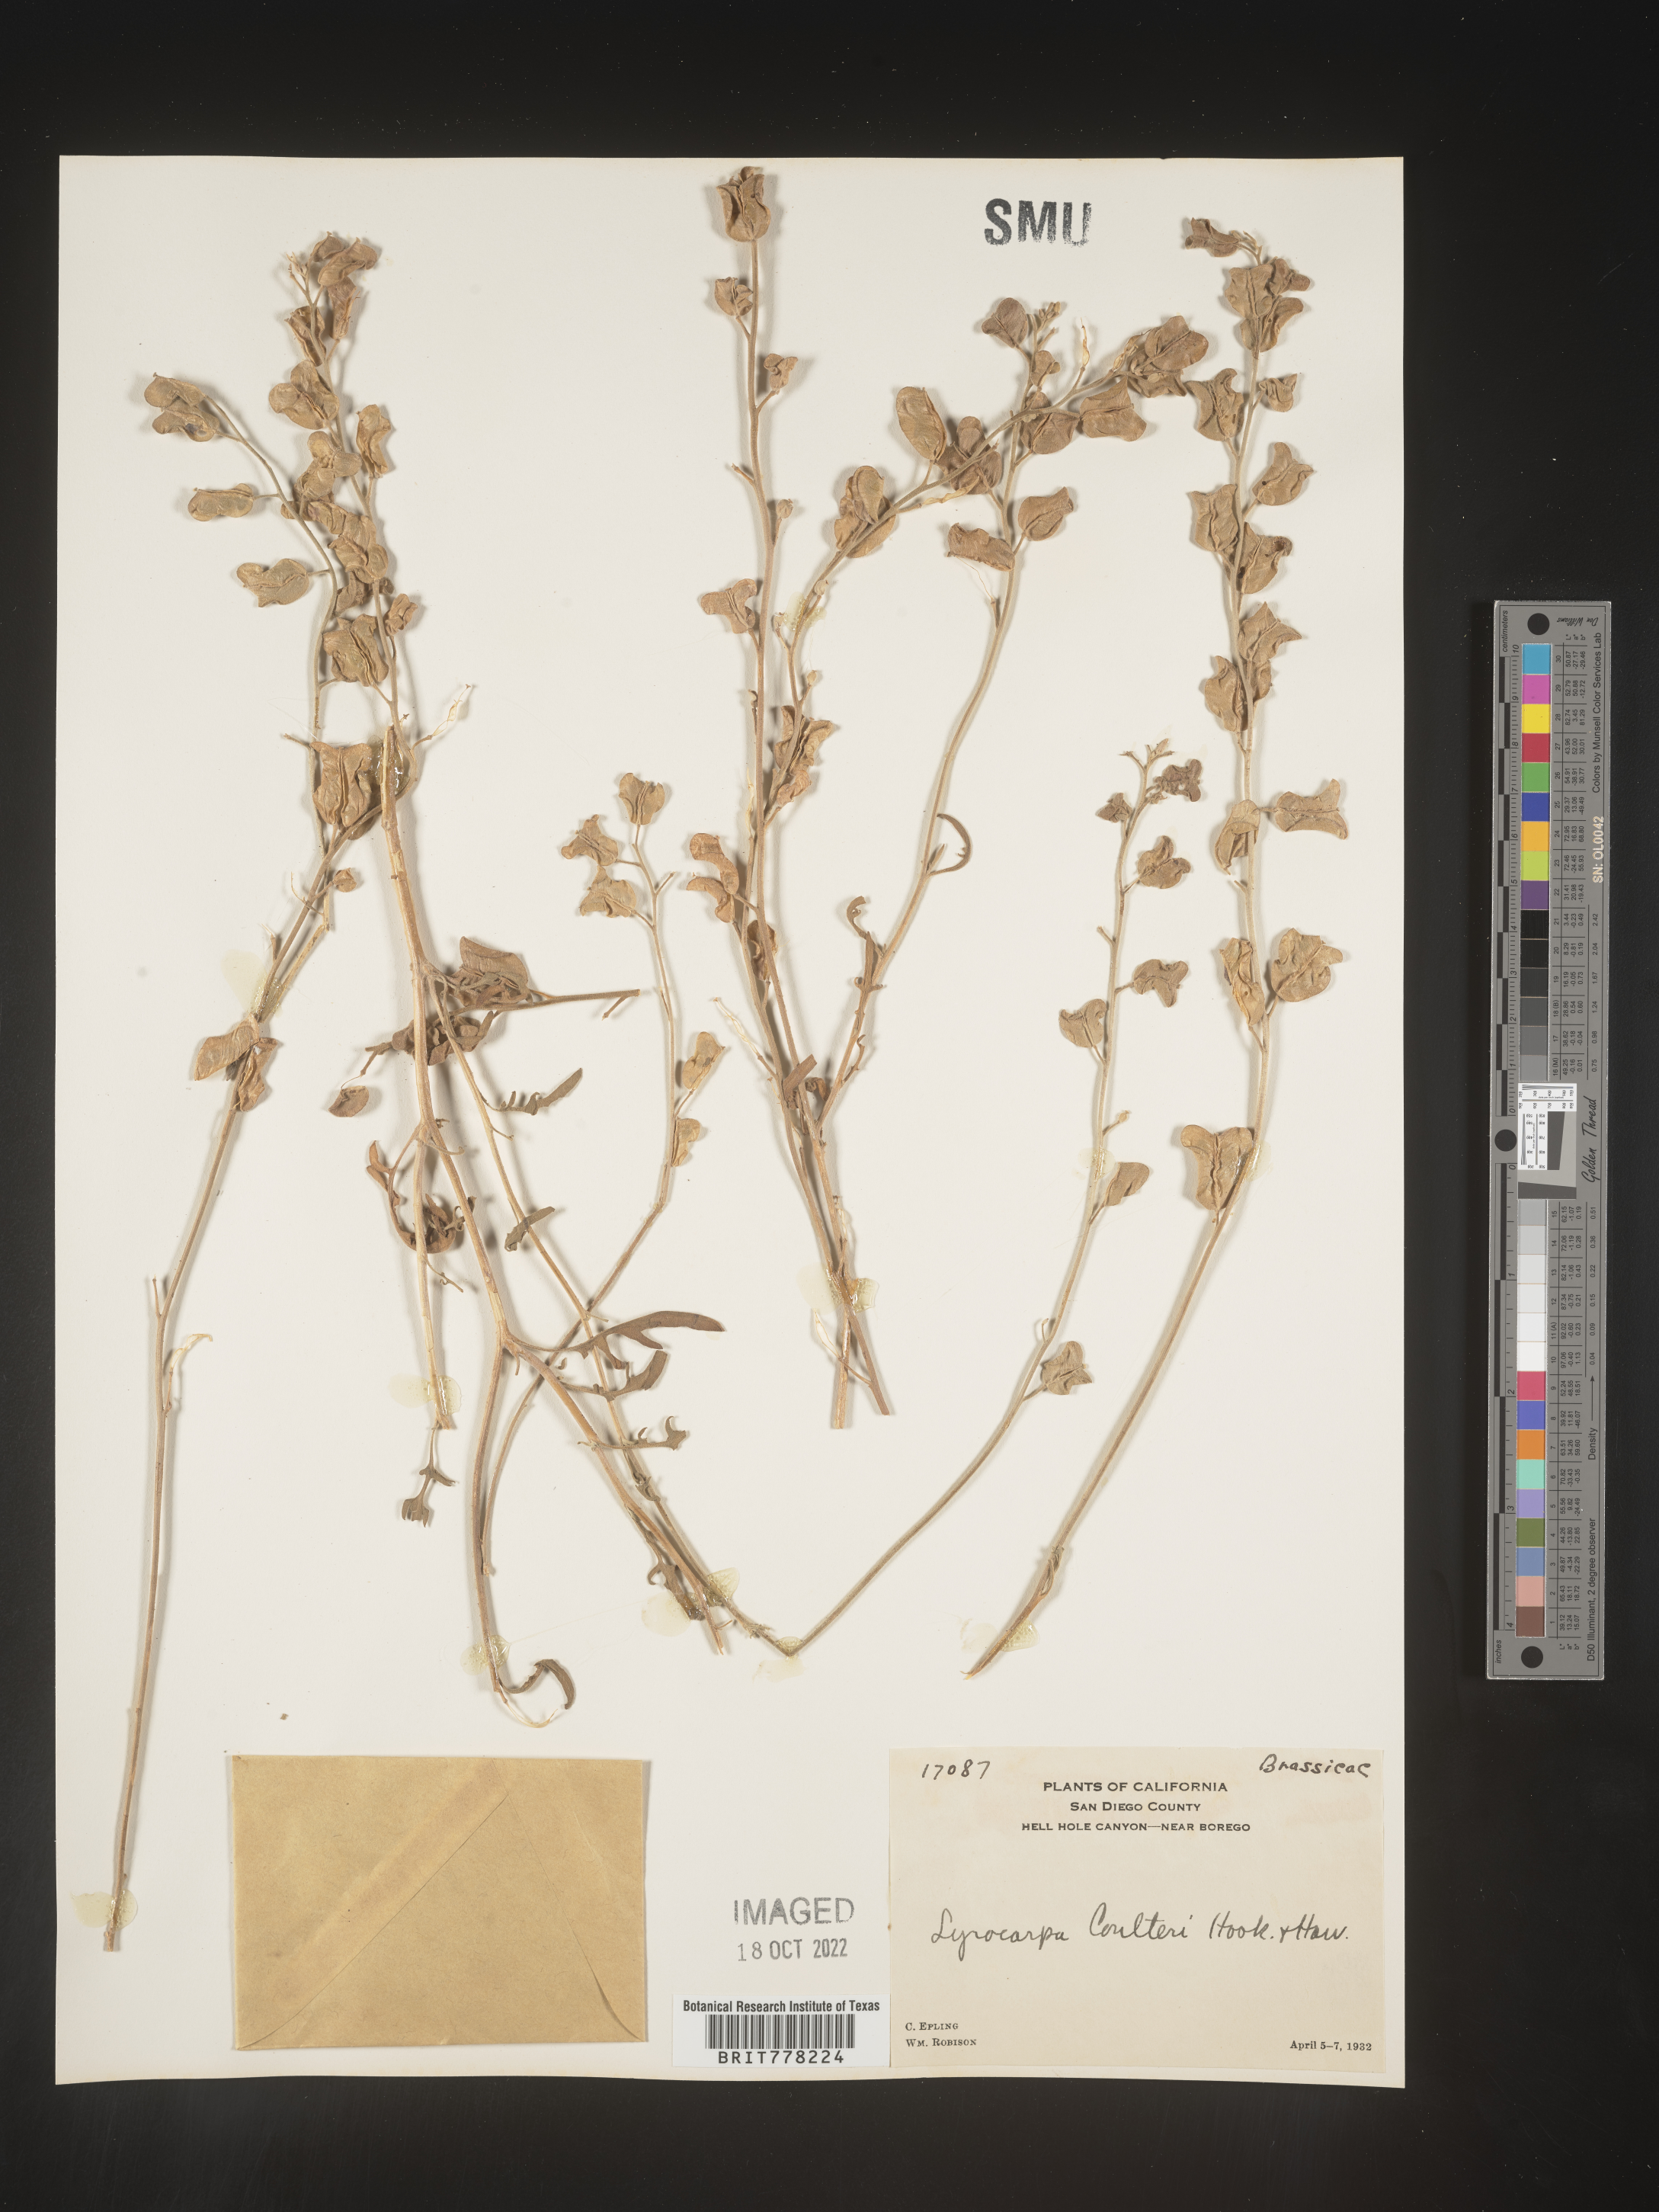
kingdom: Plantae
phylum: Tracheophyta
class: Magnoliopsida
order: Brassicales
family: Brassicaceae
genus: Lyrocarpa
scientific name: Lyrocarpa
